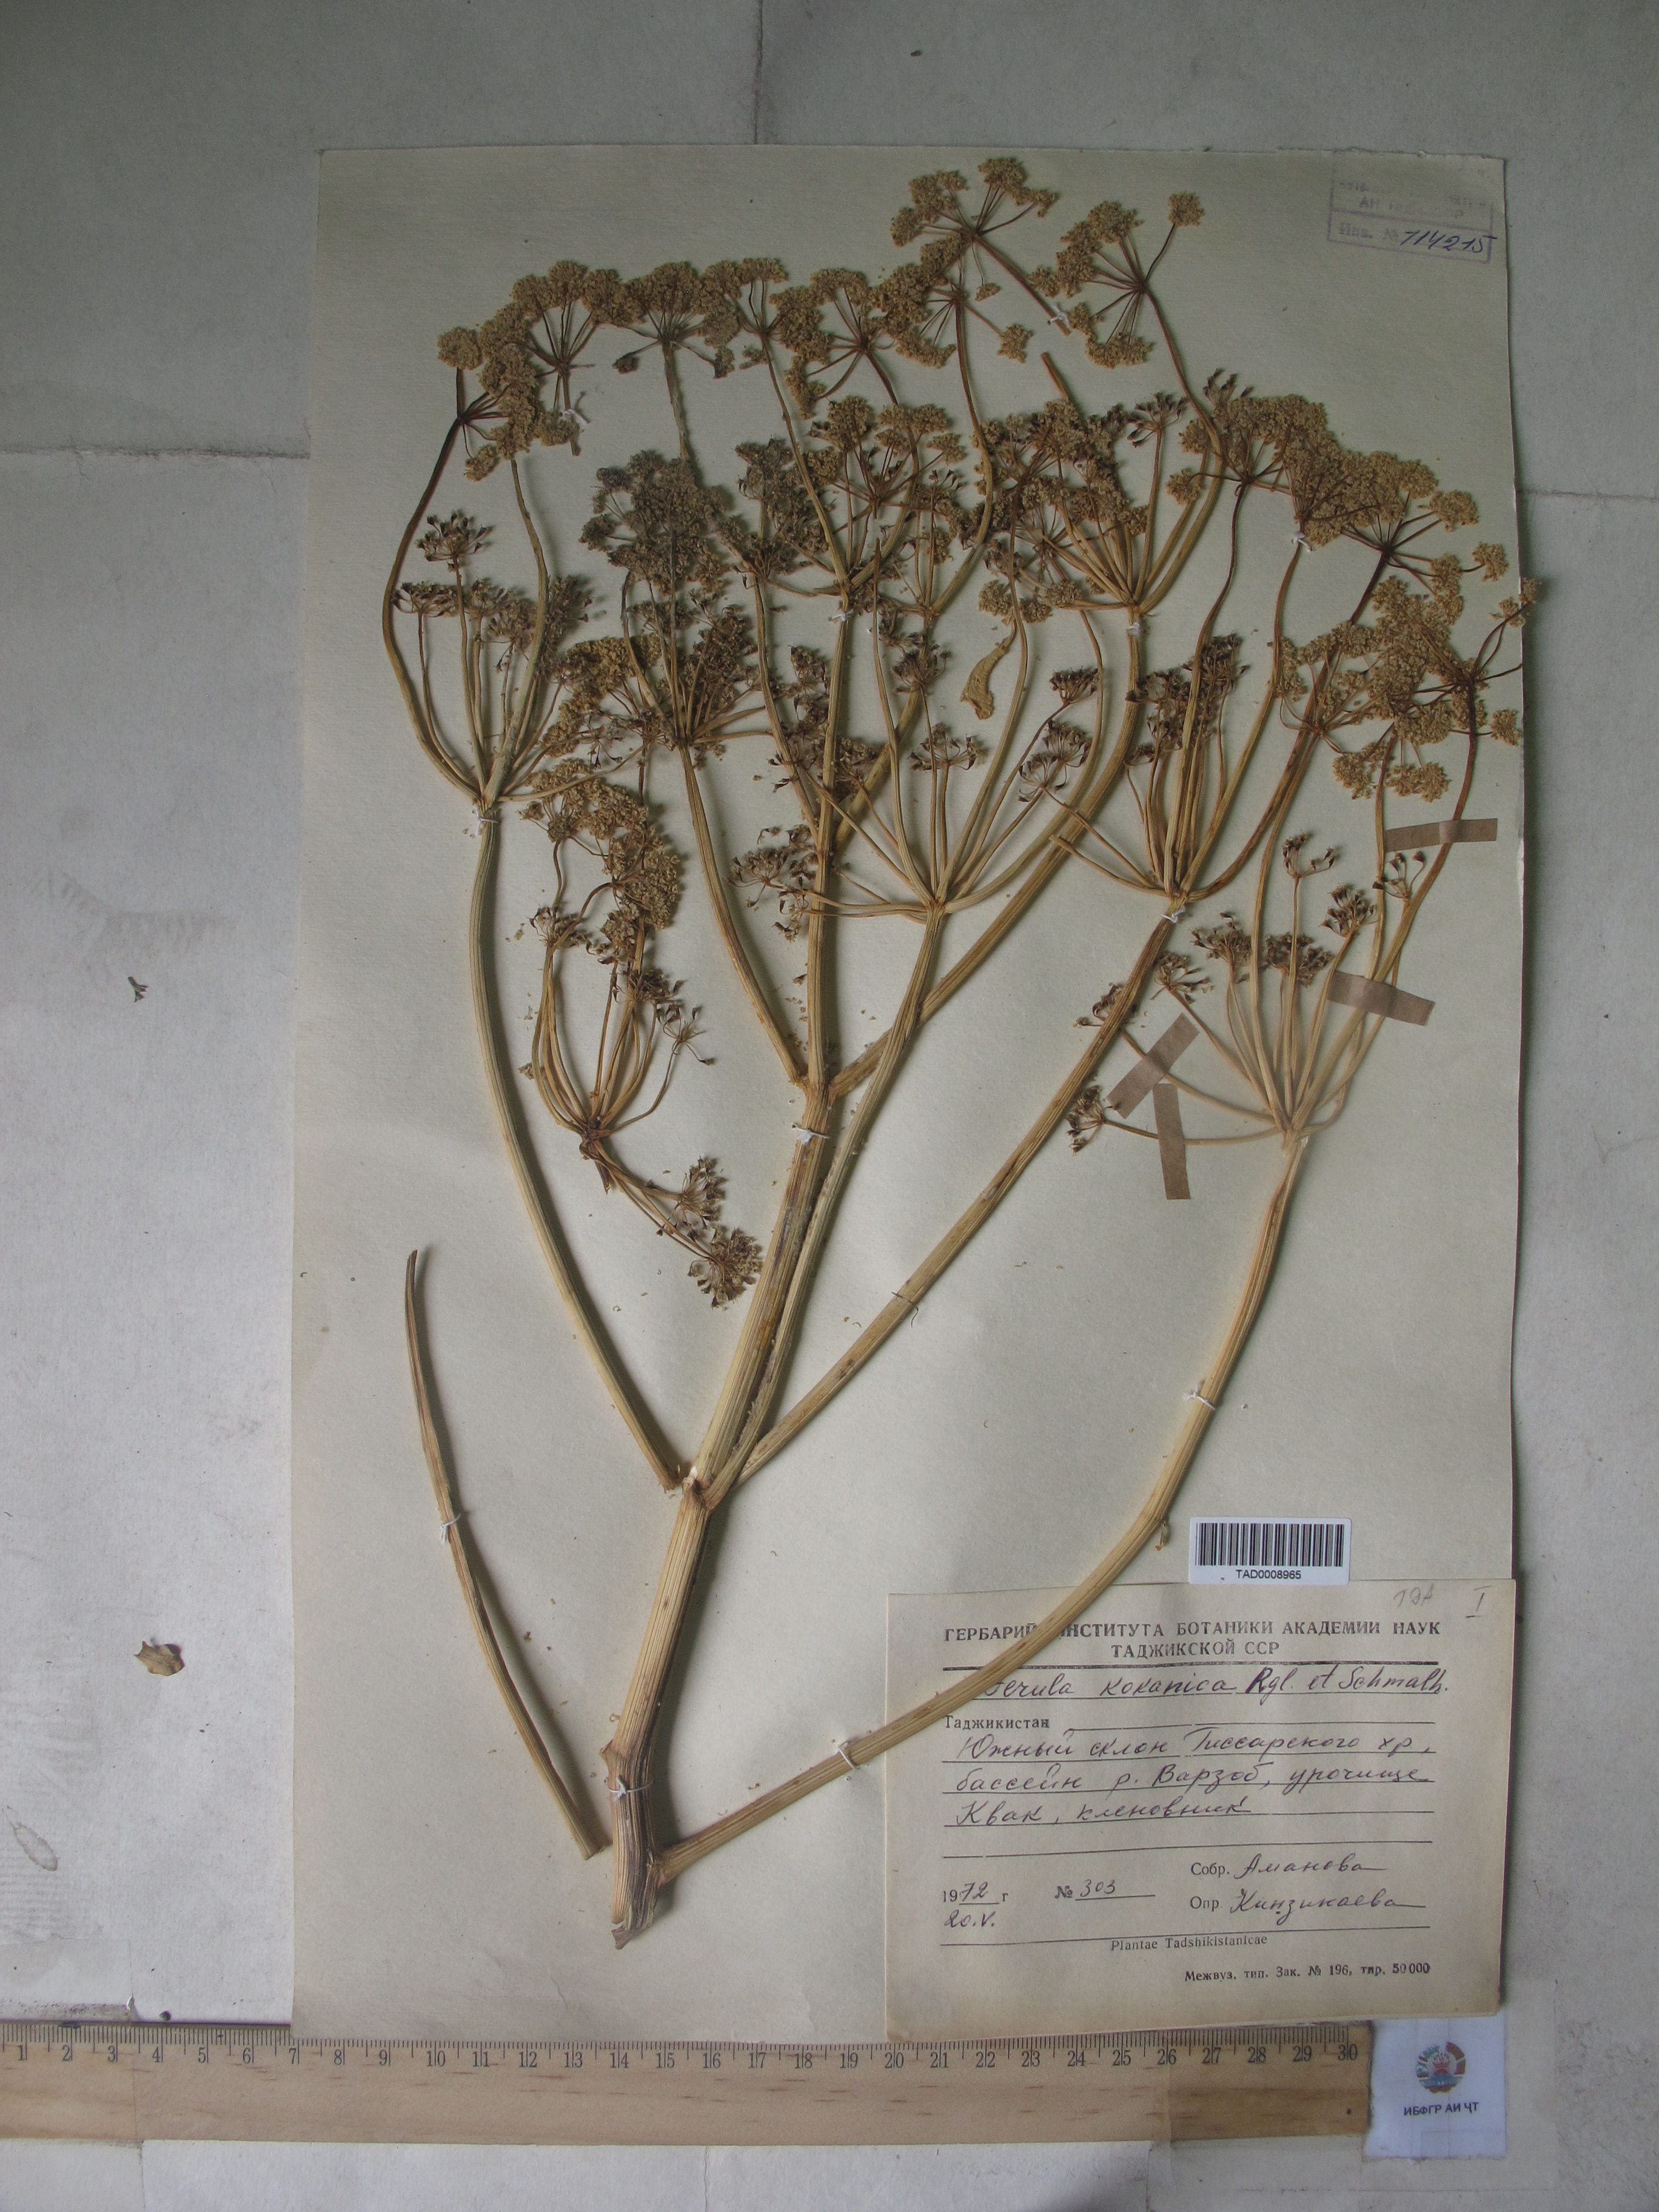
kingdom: Plantae
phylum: Tracheophyta
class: Magnoliopsida
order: Apiales
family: Apiaceae
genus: Ferula
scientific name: Ferula kokanica
